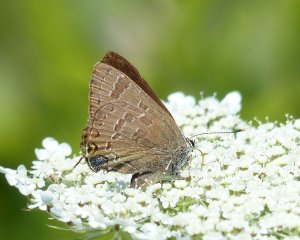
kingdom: Animalia
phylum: Arthropoda
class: Insecta
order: Lepidoptera
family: Lycaenidae
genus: Strymon
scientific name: Strymon caryaevorus
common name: Hickory Hairstreak
